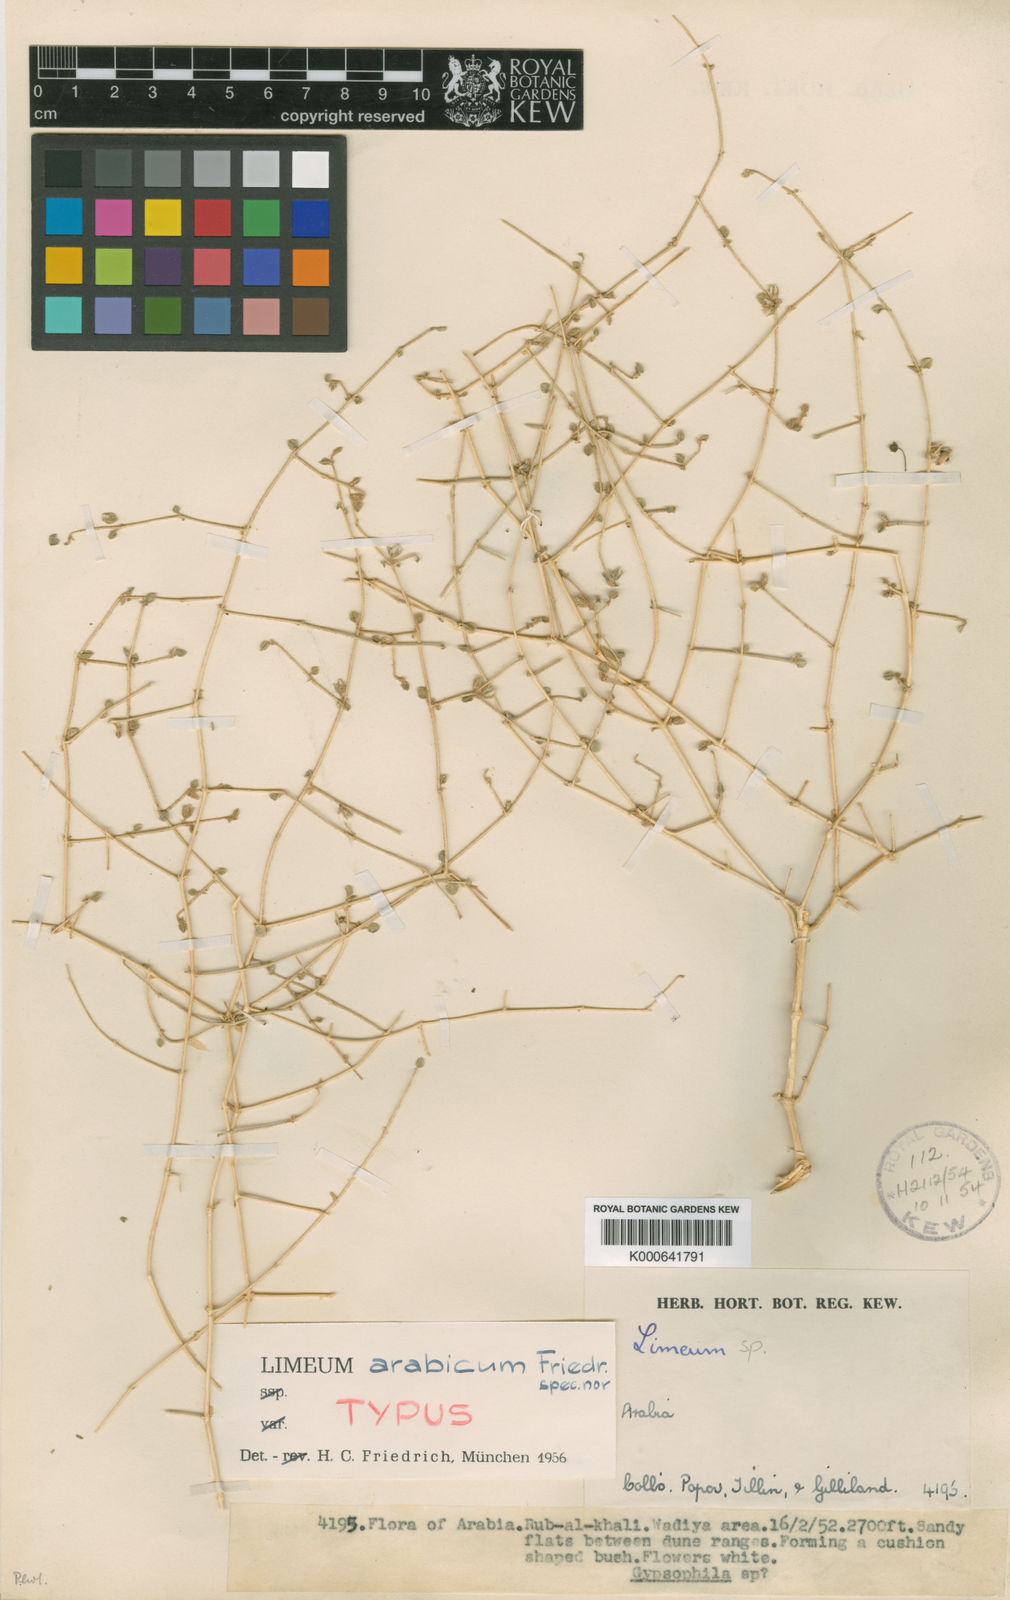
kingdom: Plantae
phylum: Tracheophyta
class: Magnoliopsida
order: Caryophyllales
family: Limeaceae
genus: Limeum
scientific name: Limeum arabicum
